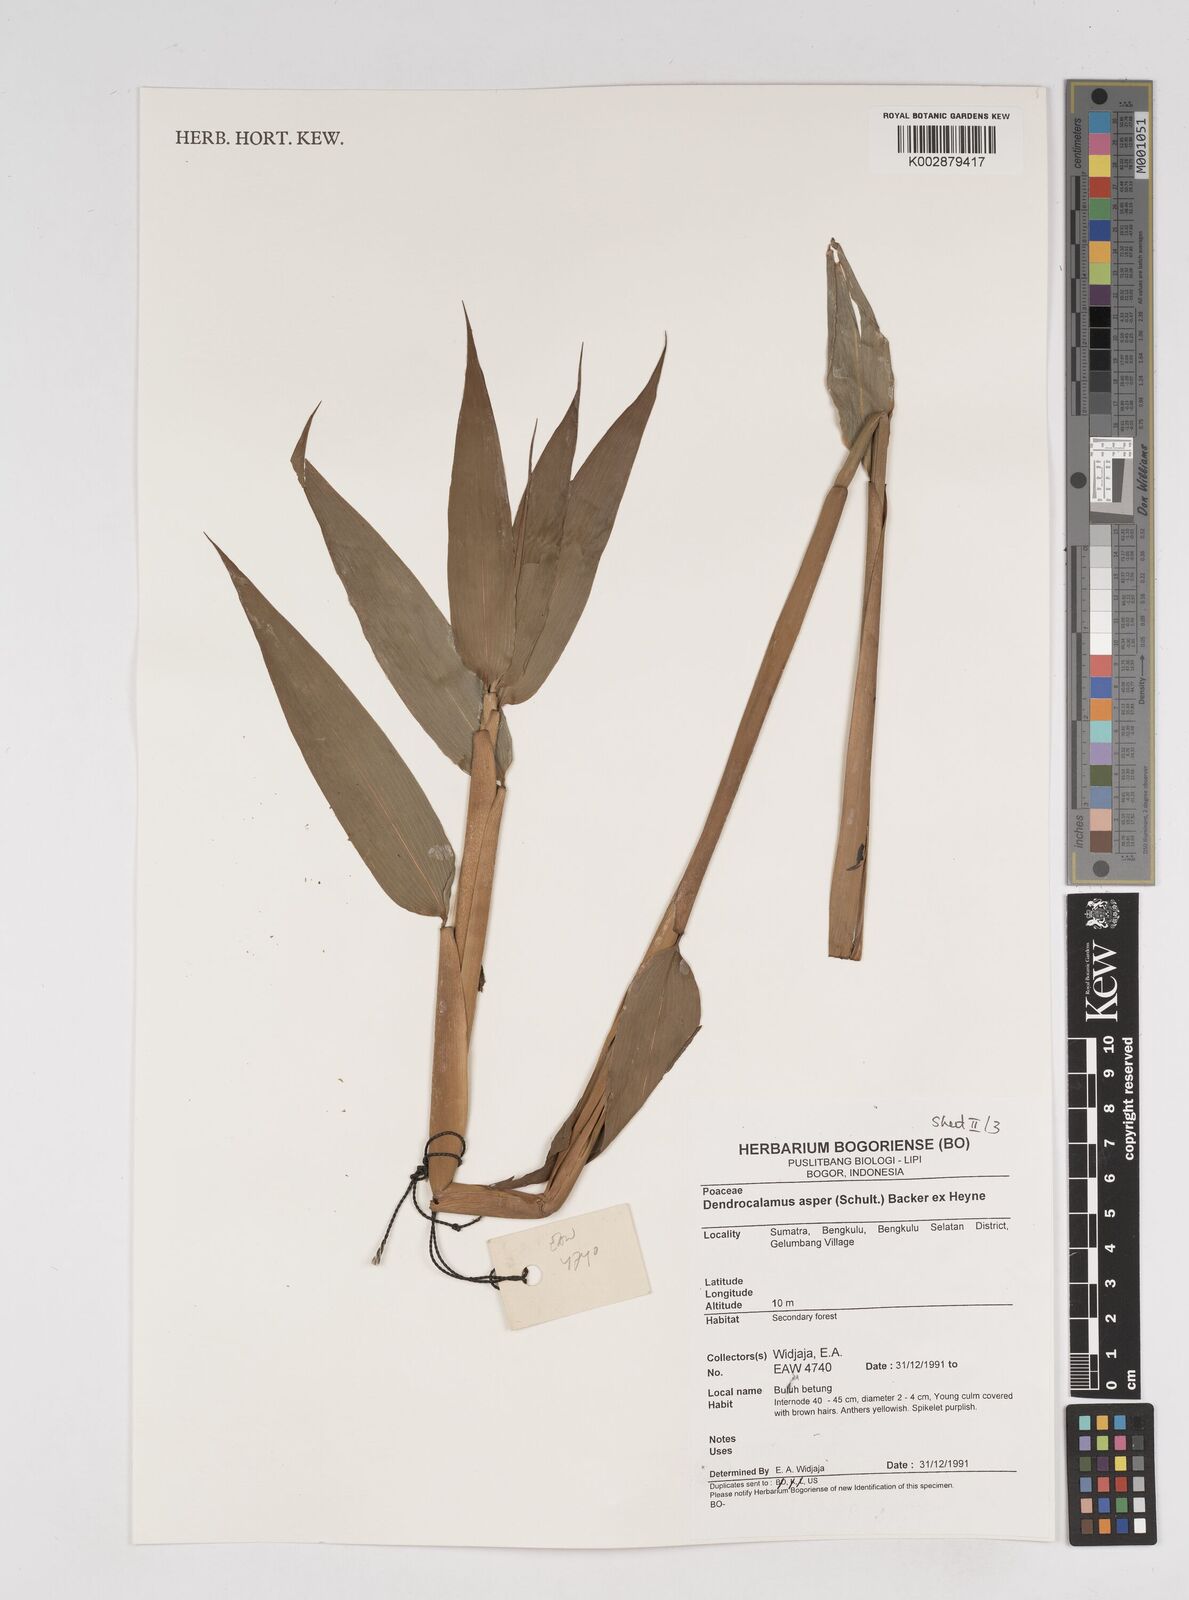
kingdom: Plantae
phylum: Tracheophyta
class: Liliopsida
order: Poales
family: Poaceae
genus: Dendrocalamus
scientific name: Dendrocalamus asper
